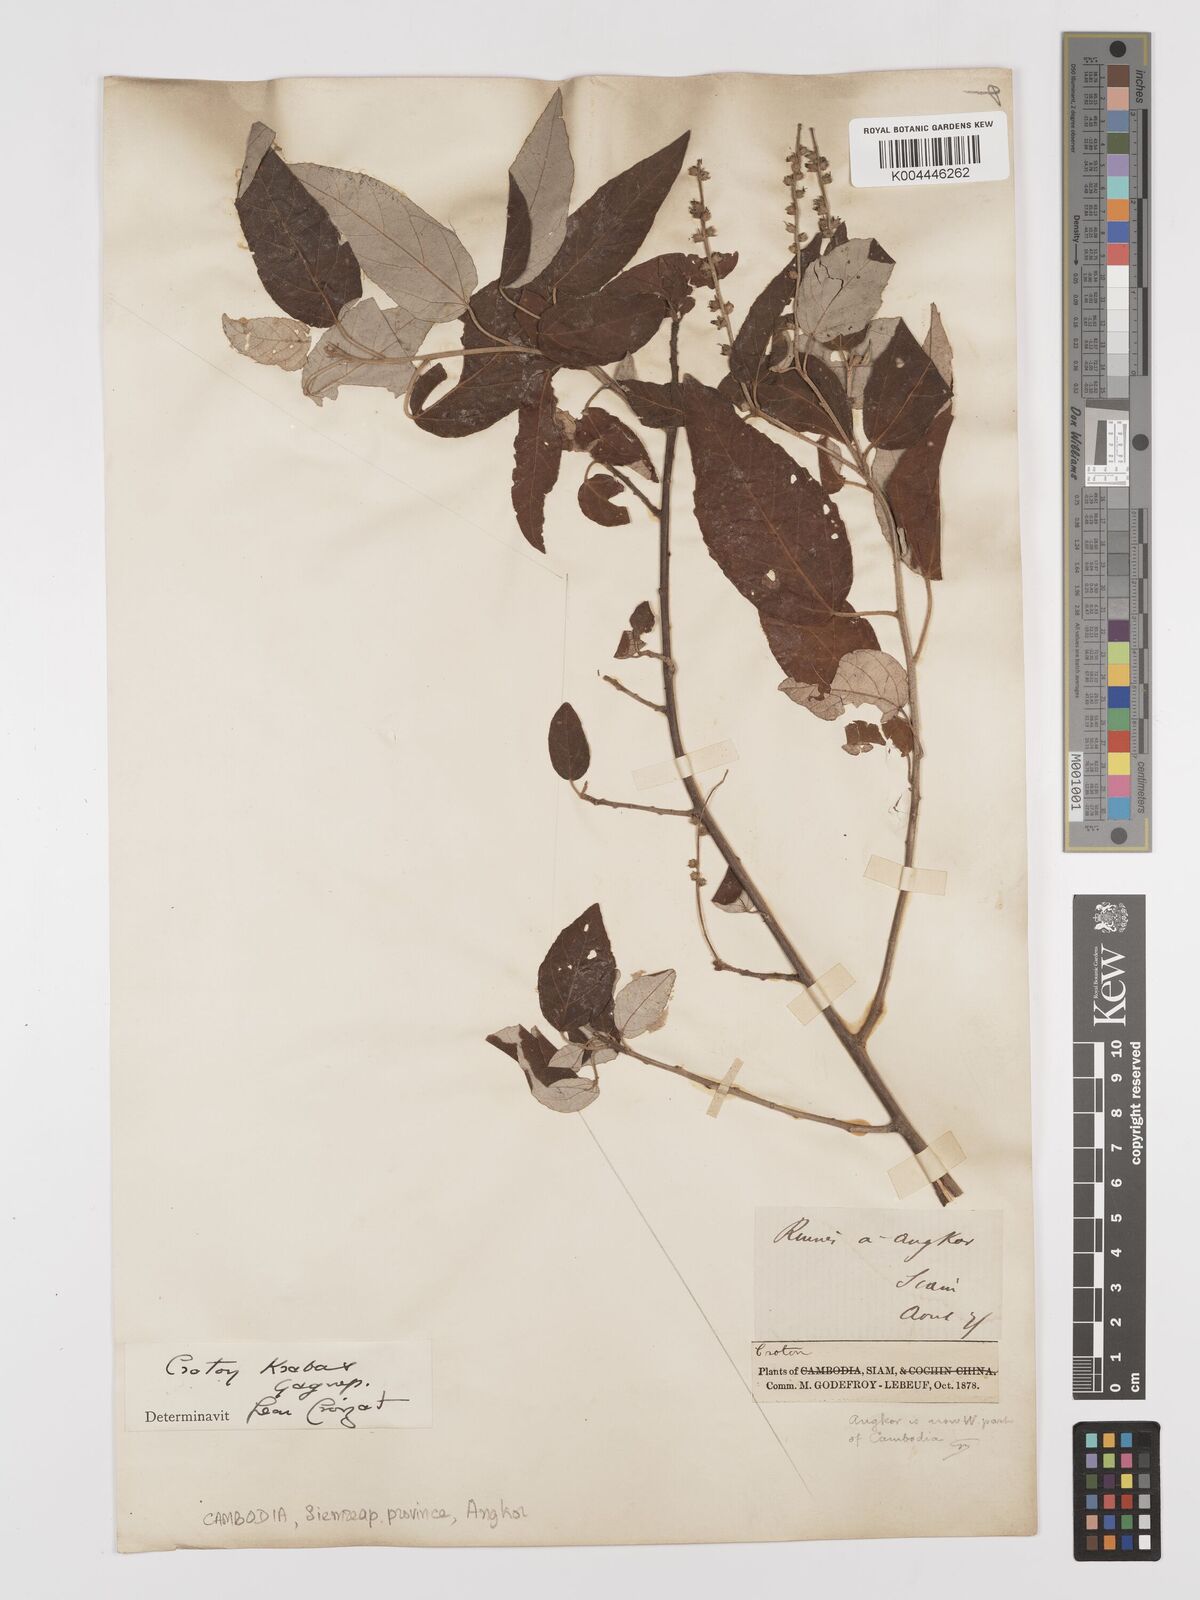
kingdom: Plantae
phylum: Tracheophyta
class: Magnoliopsida
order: Malpighiales
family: Euphorbiaceae
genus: Croton
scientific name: Croton krabas
